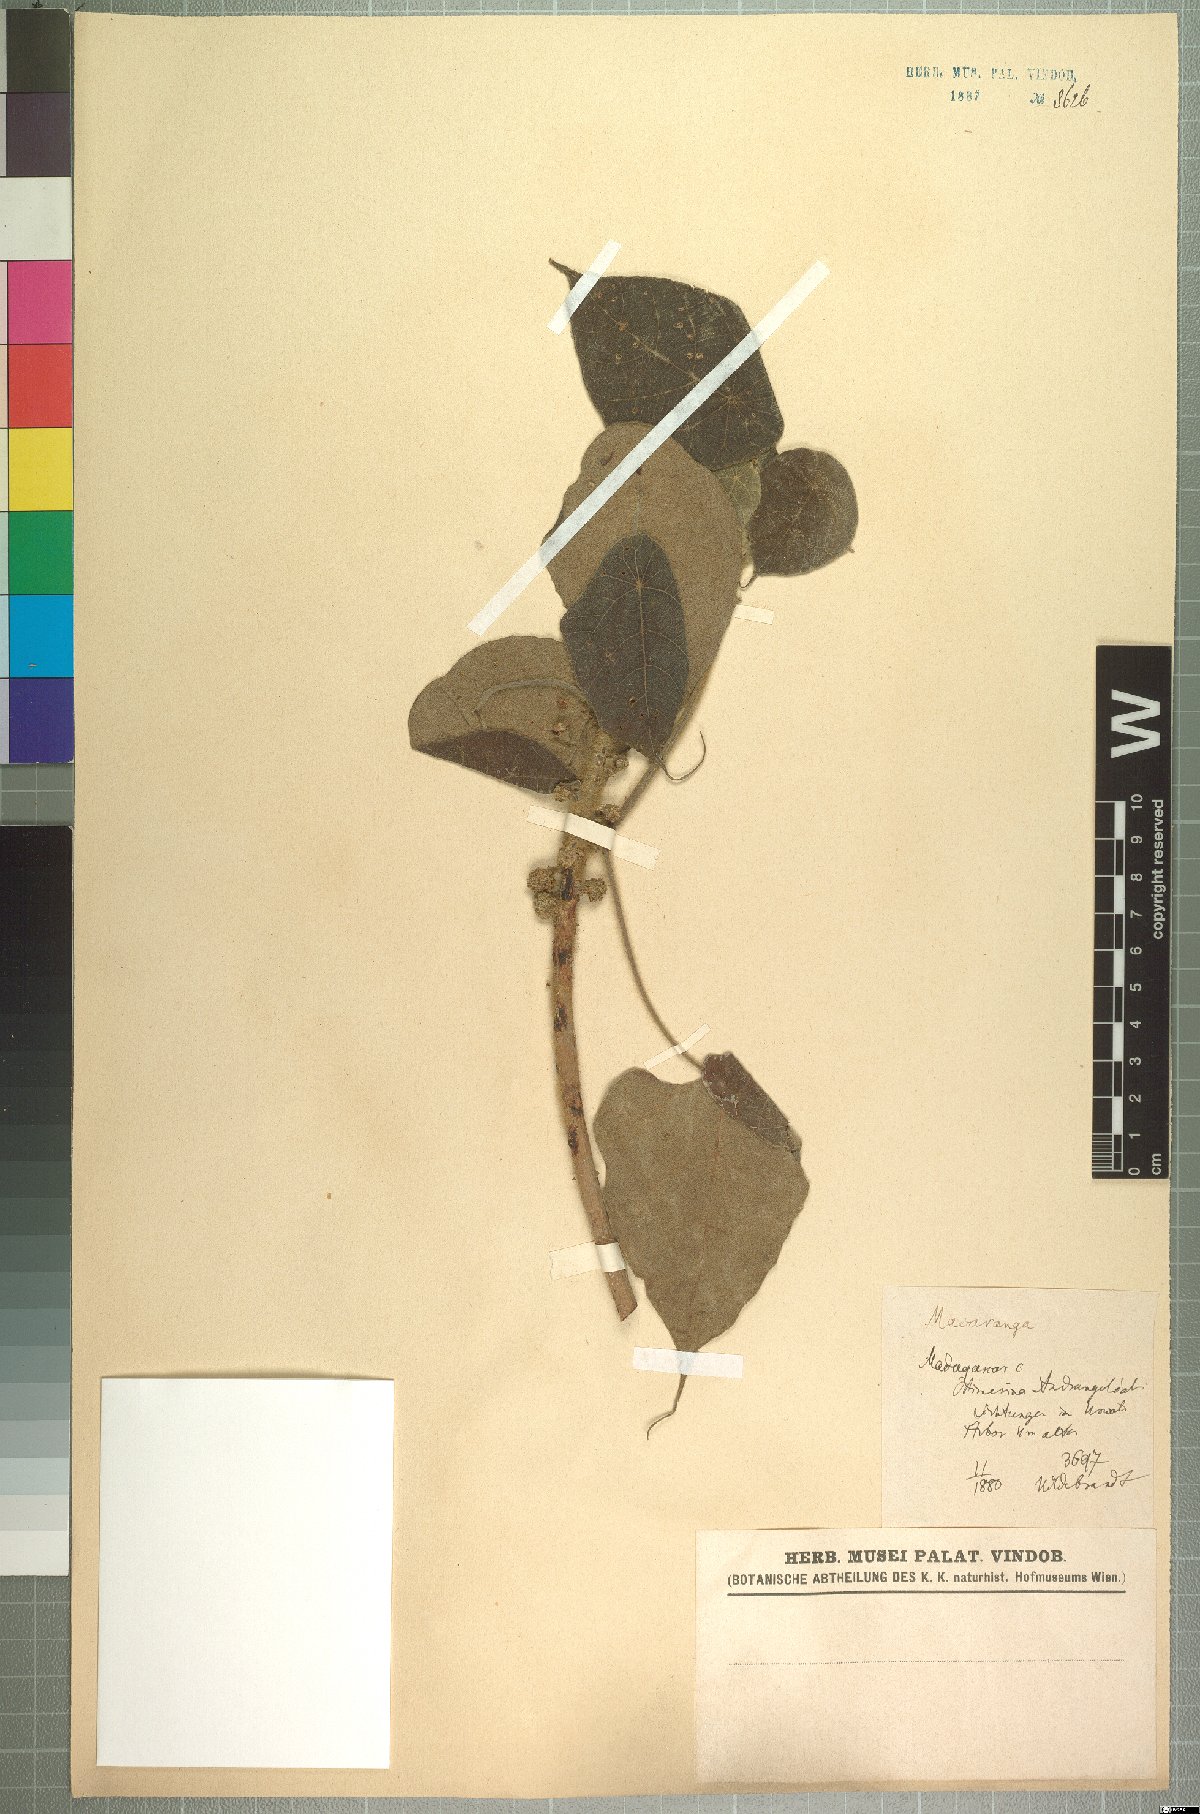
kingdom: Plantae
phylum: Tracheophyta
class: Magnoliopsida
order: Malpighiales
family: Euphorbiaceae
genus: Macaranga
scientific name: Macaranga cuspidata
